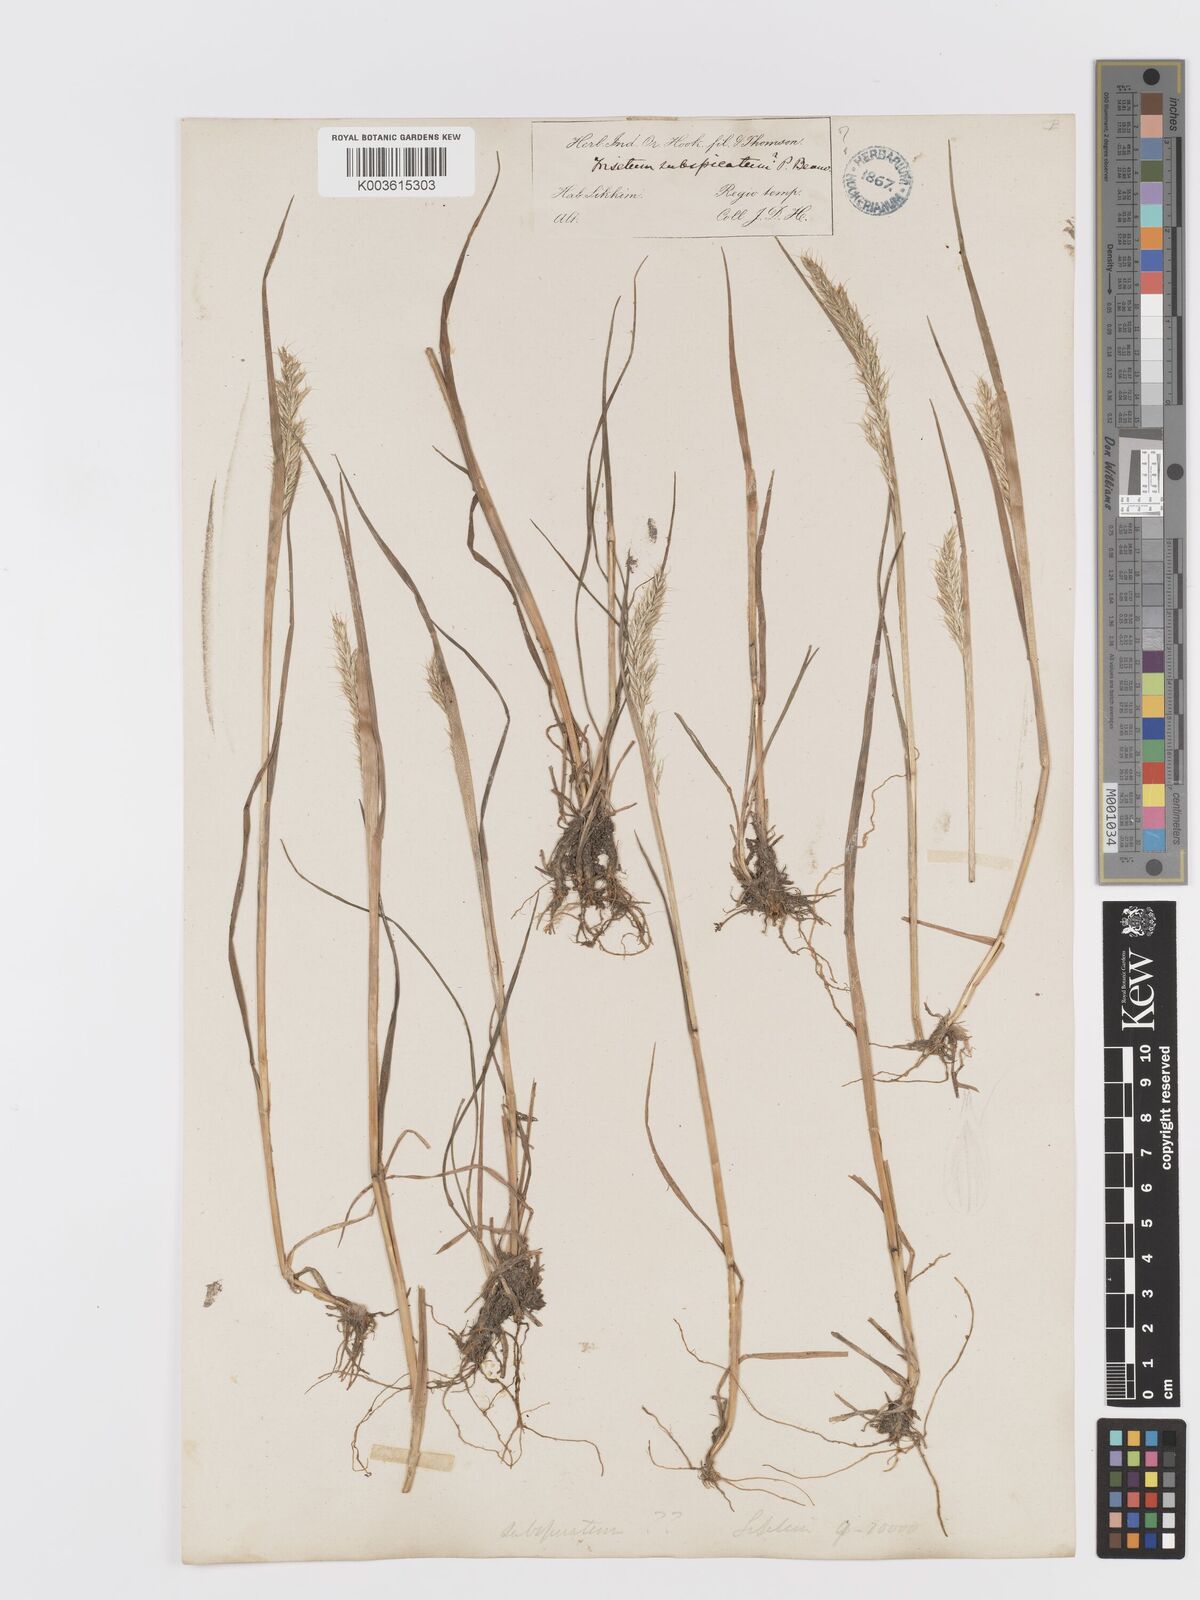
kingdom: Plantae
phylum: Tracheophyta
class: Liliopsida
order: Poales
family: Poaceae
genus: Koeleria
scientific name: Koeleria spicata
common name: Mountain trisetum
